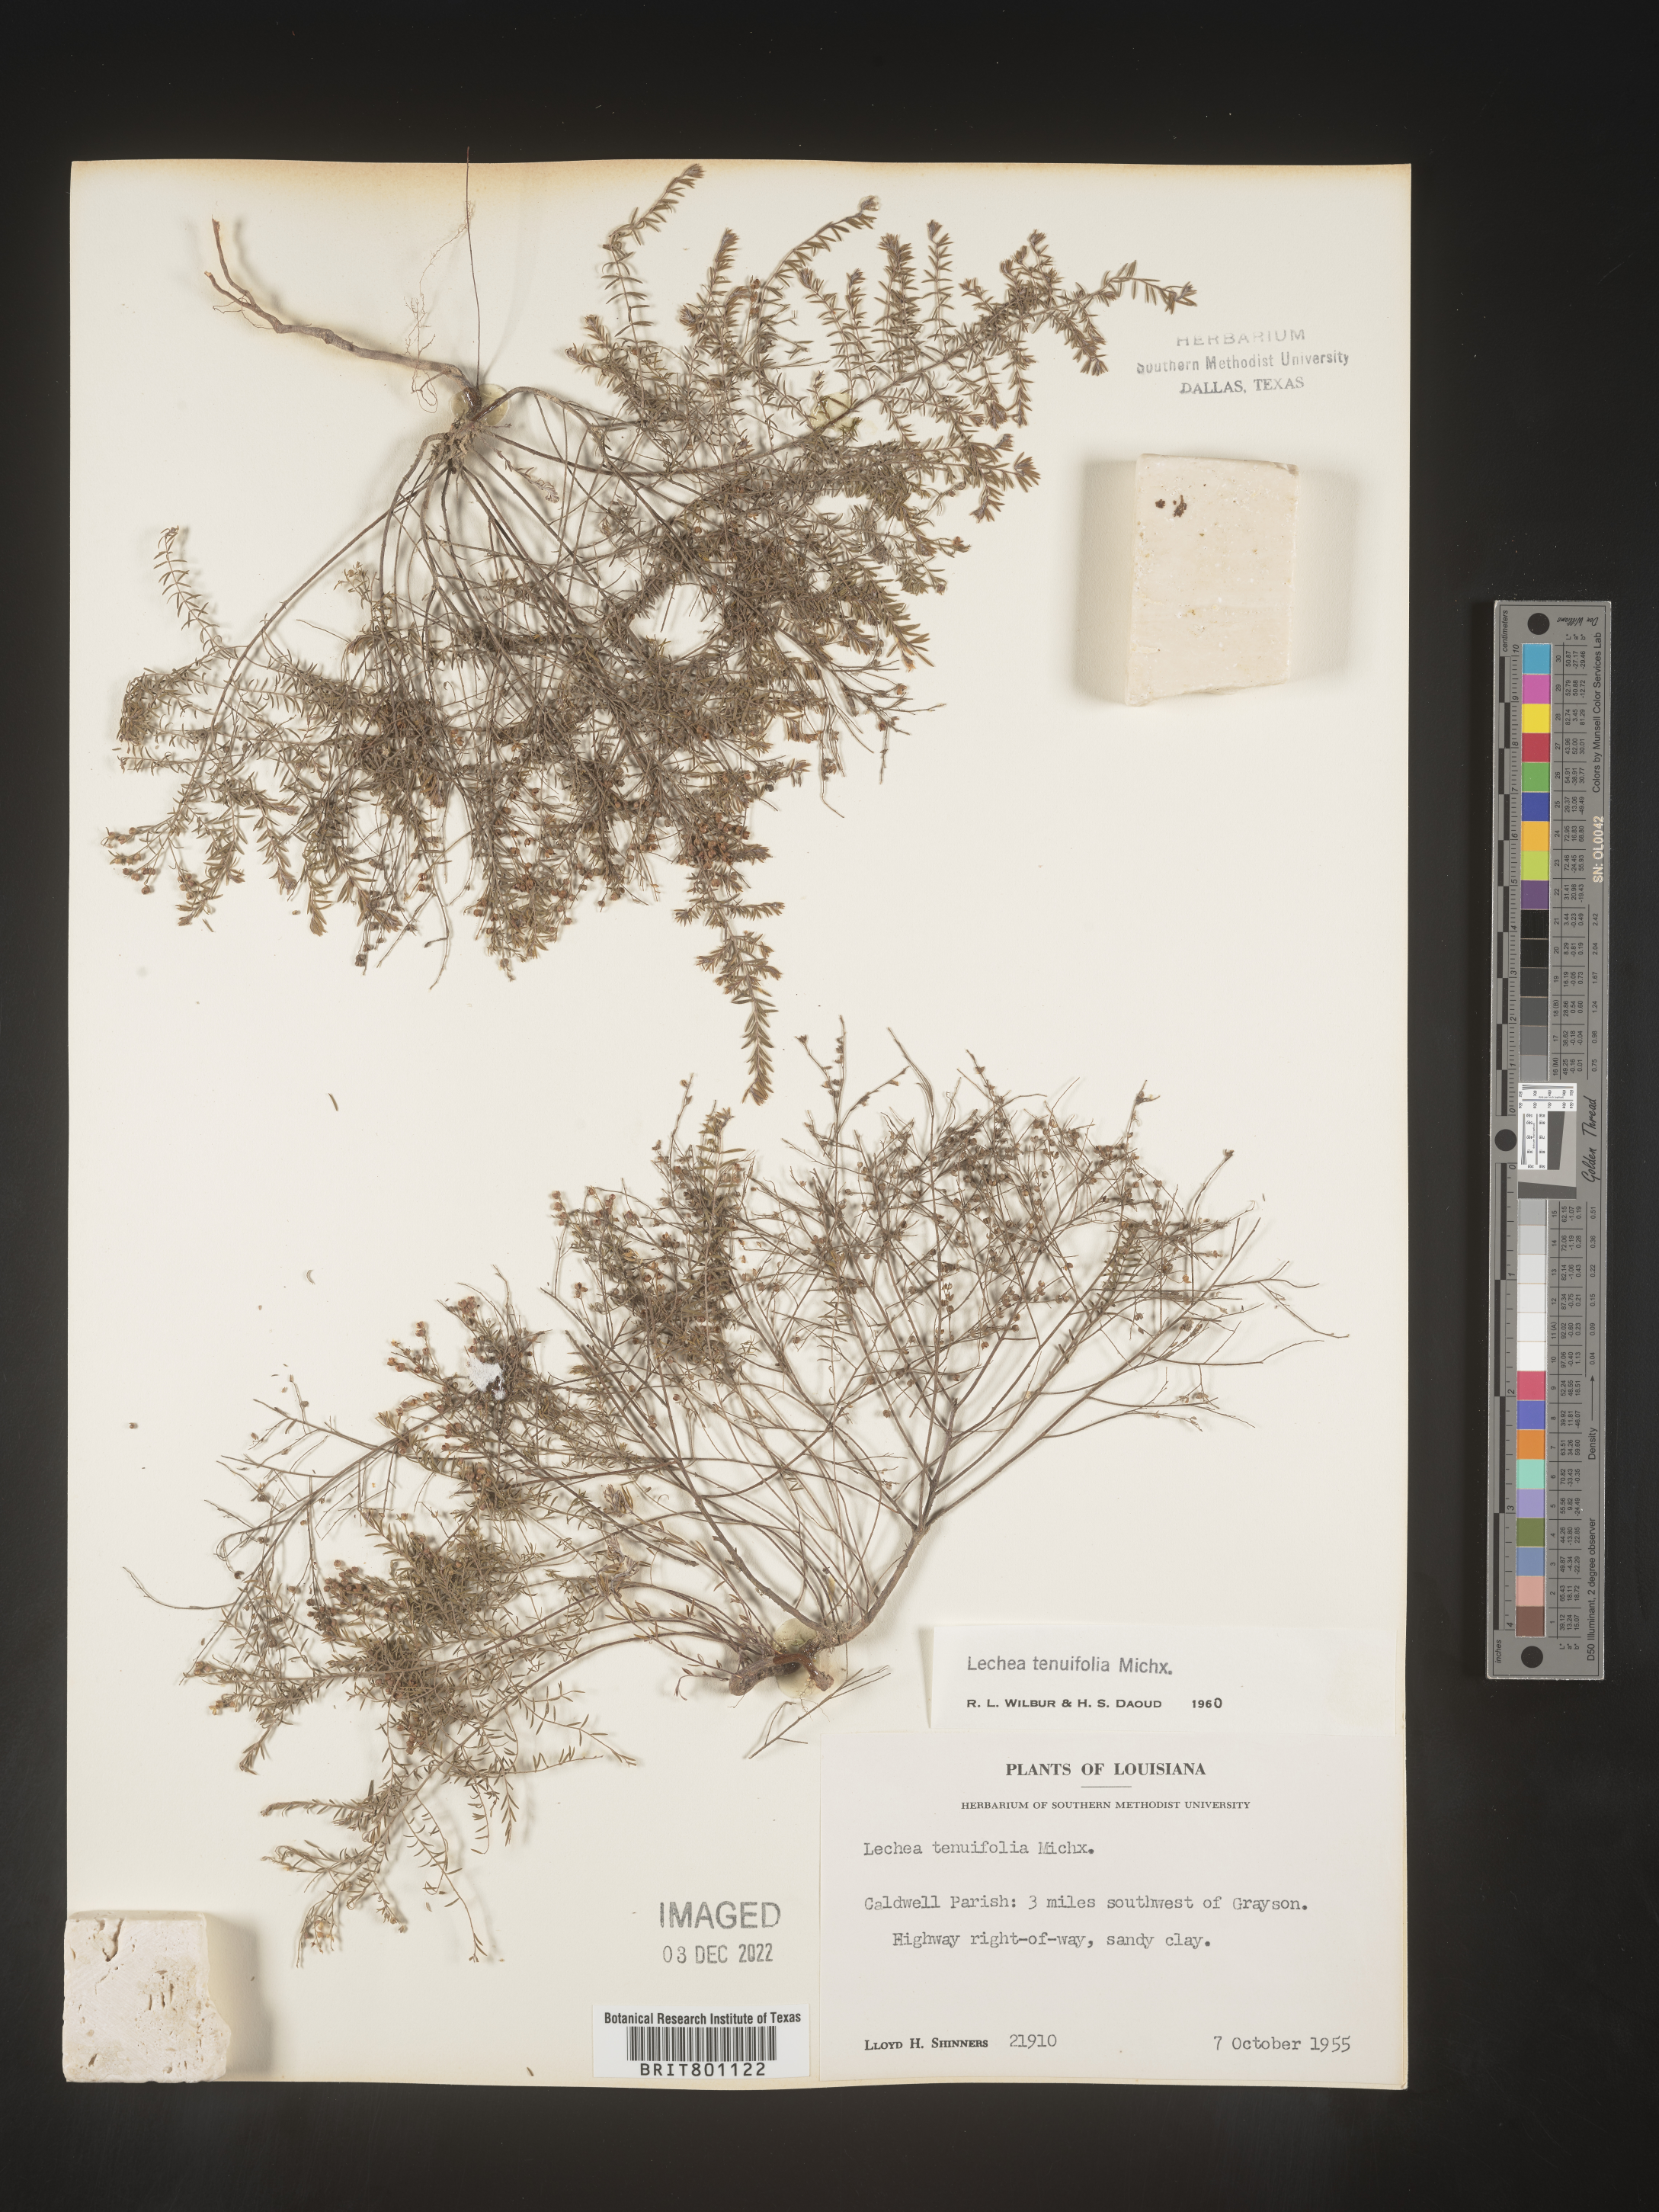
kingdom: Plantae
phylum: Tracheophyta
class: Magnoliopsida
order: Malvales
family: Cistaceae
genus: Lechea
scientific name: Lechea tenuifolia
